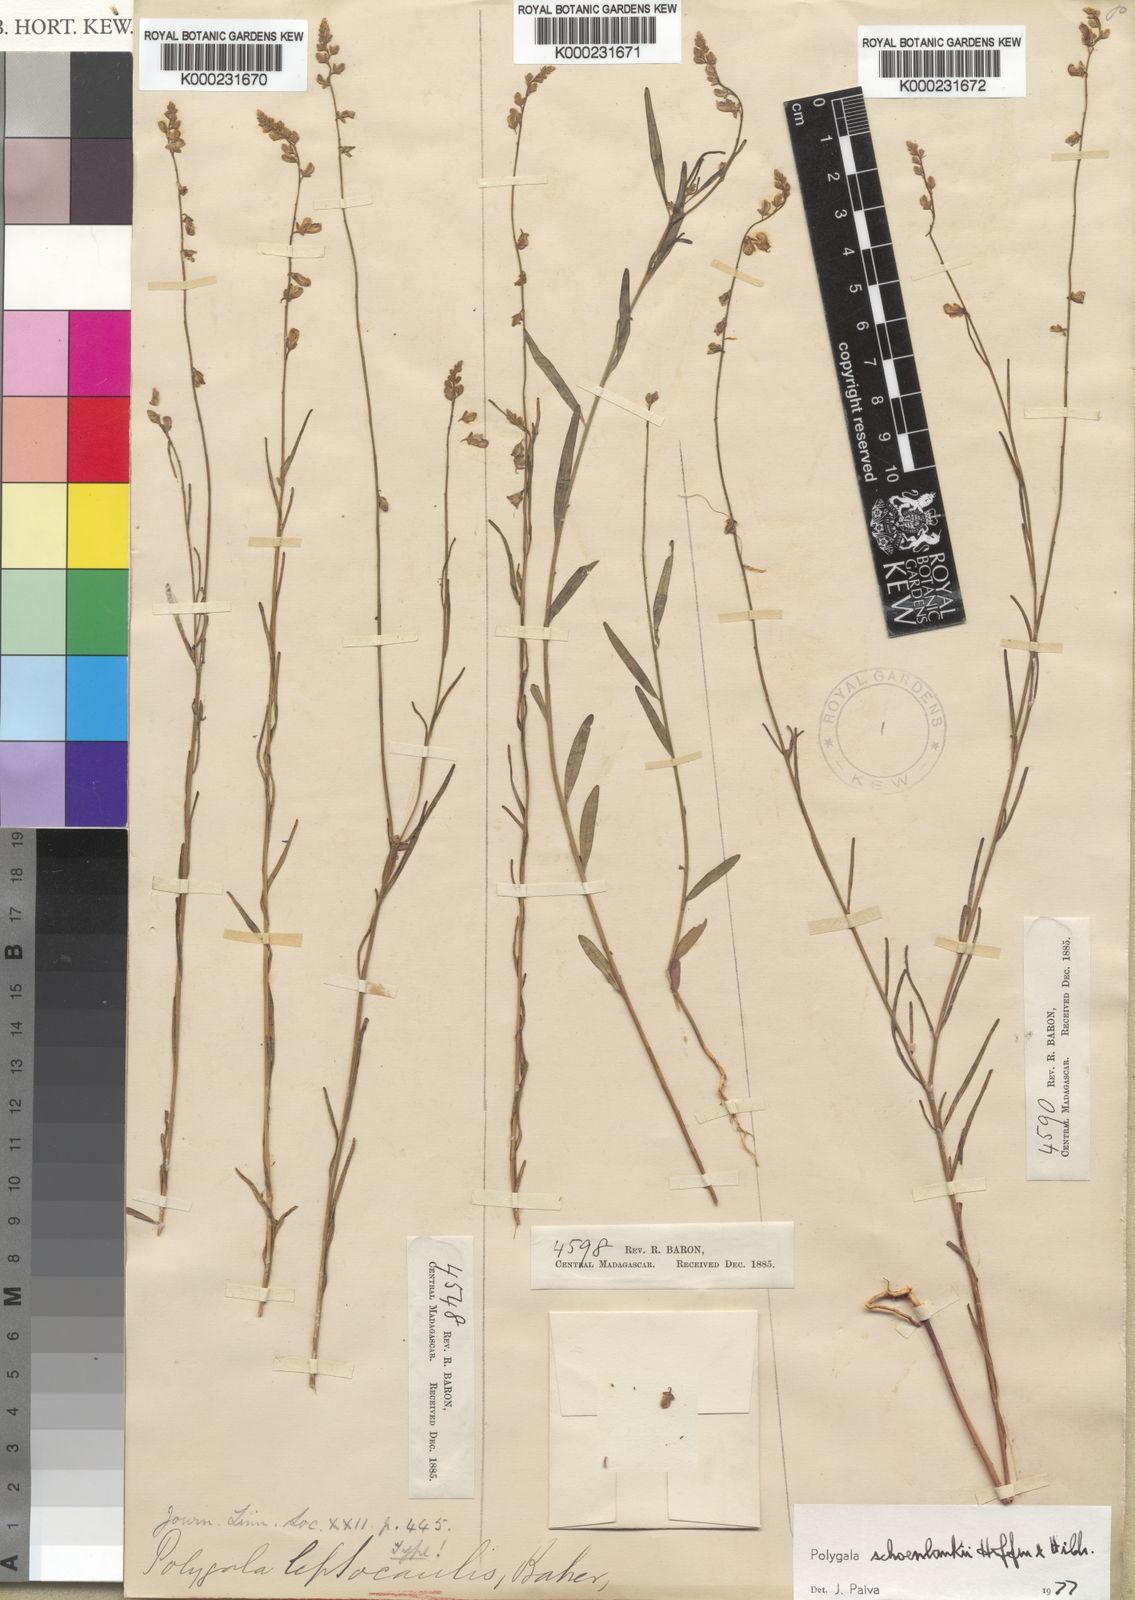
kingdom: Plantae
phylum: Tracheophyta
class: Magnoliopsida
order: Fabales
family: Polygalaceae
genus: Polygala
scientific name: Polygala
